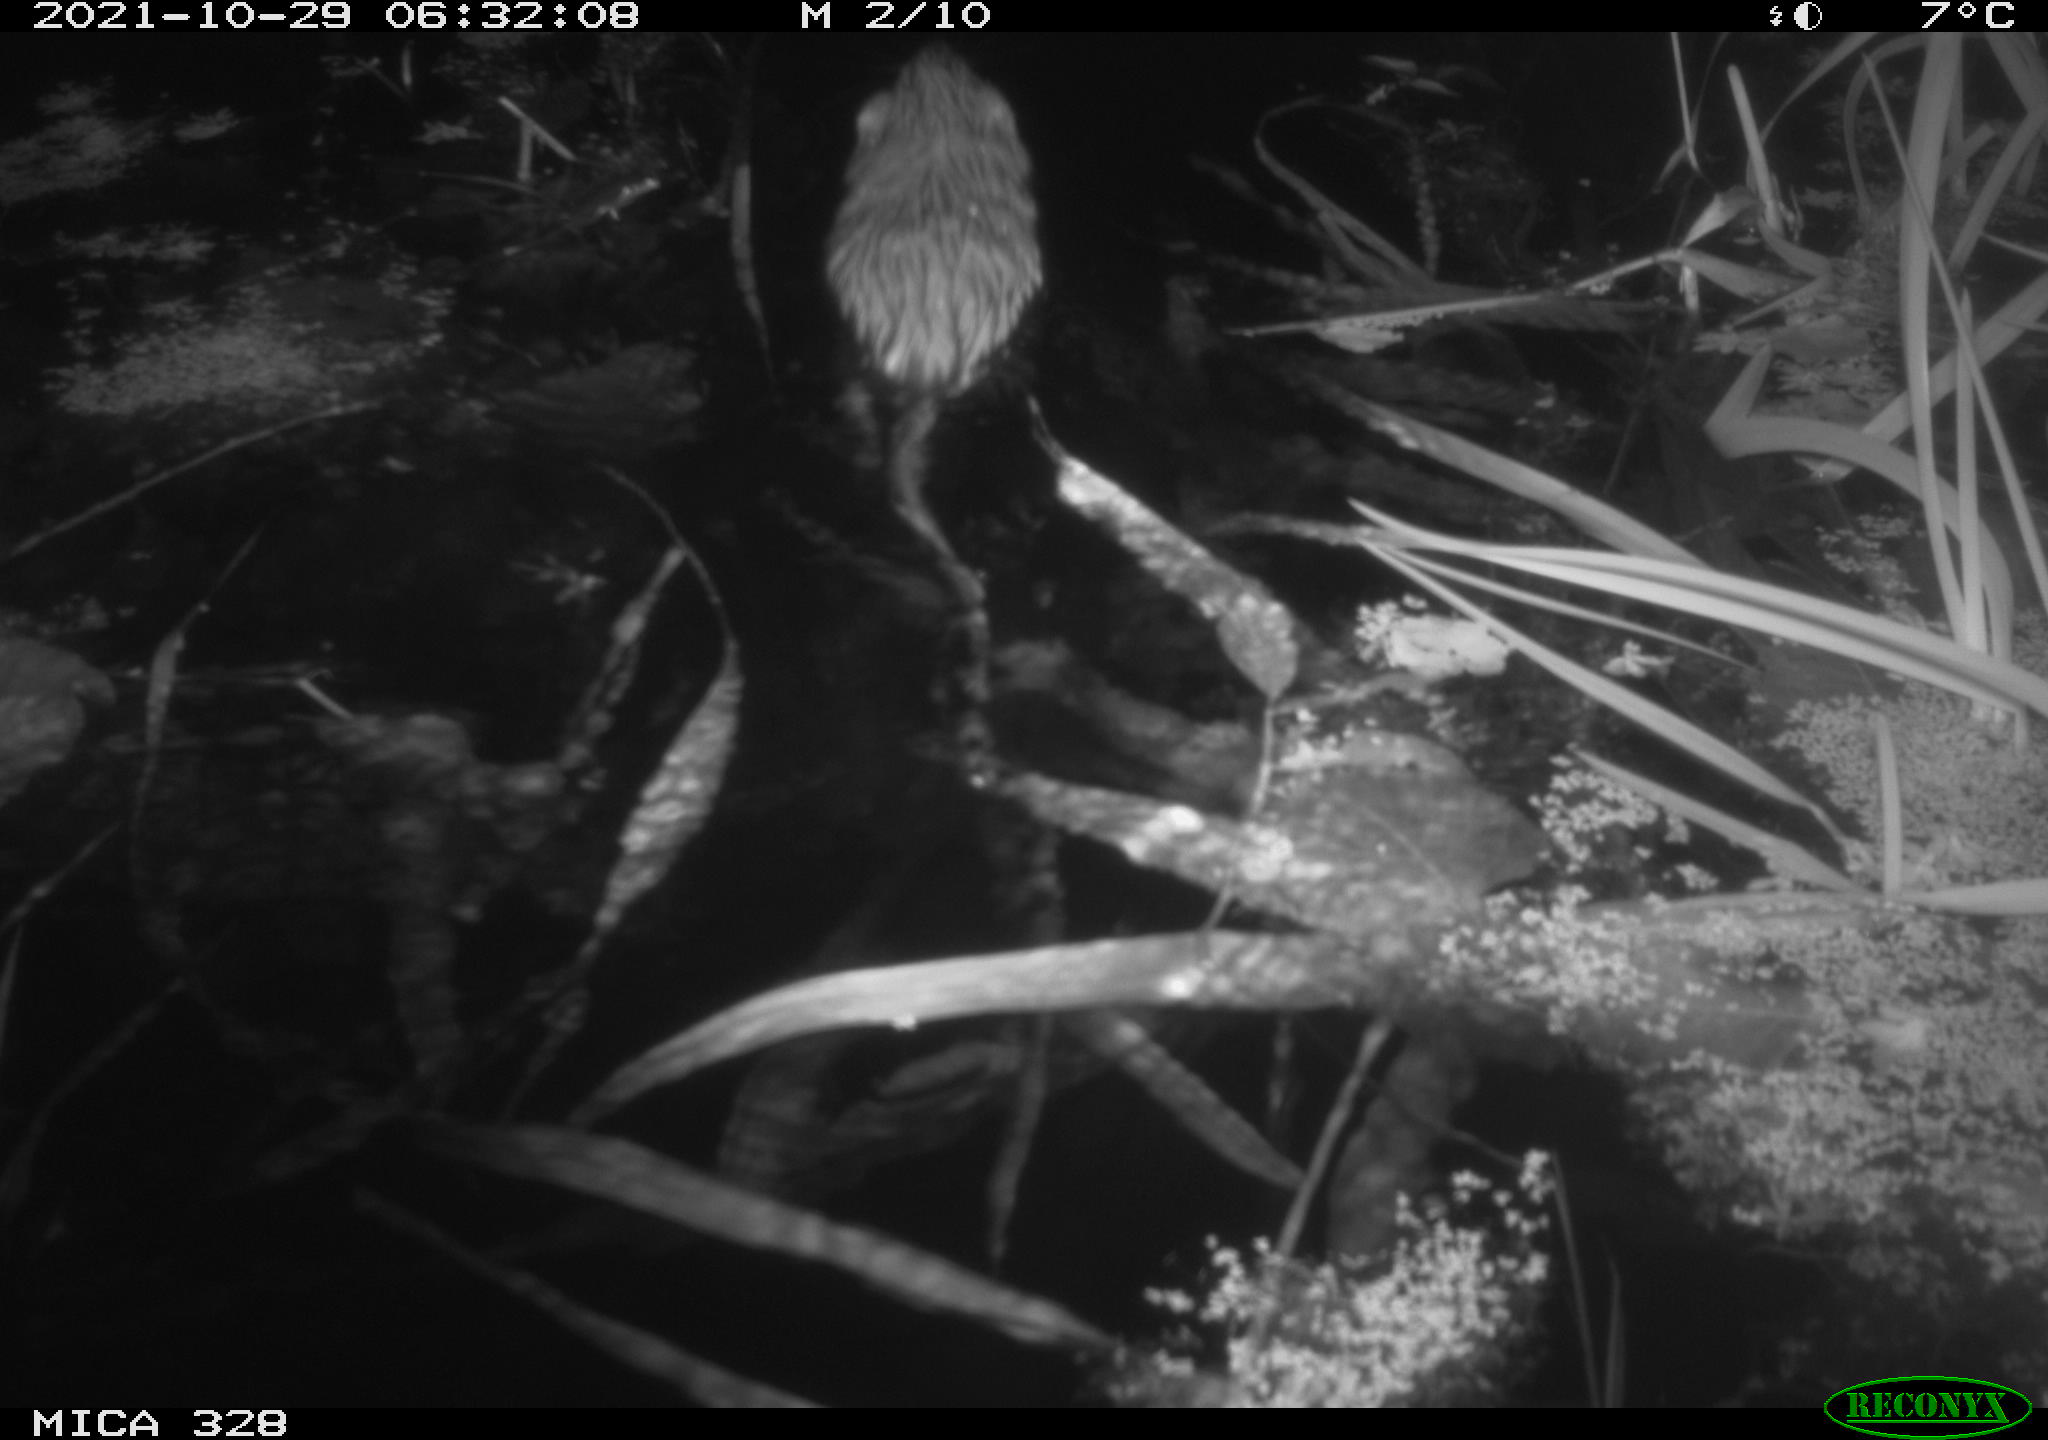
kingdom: Animalia
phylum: Chordata
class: Mammalia
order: Rodentia
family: Cricetidae
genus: Ondatra
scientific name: Ondatra zibethicus
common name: Muskrat
